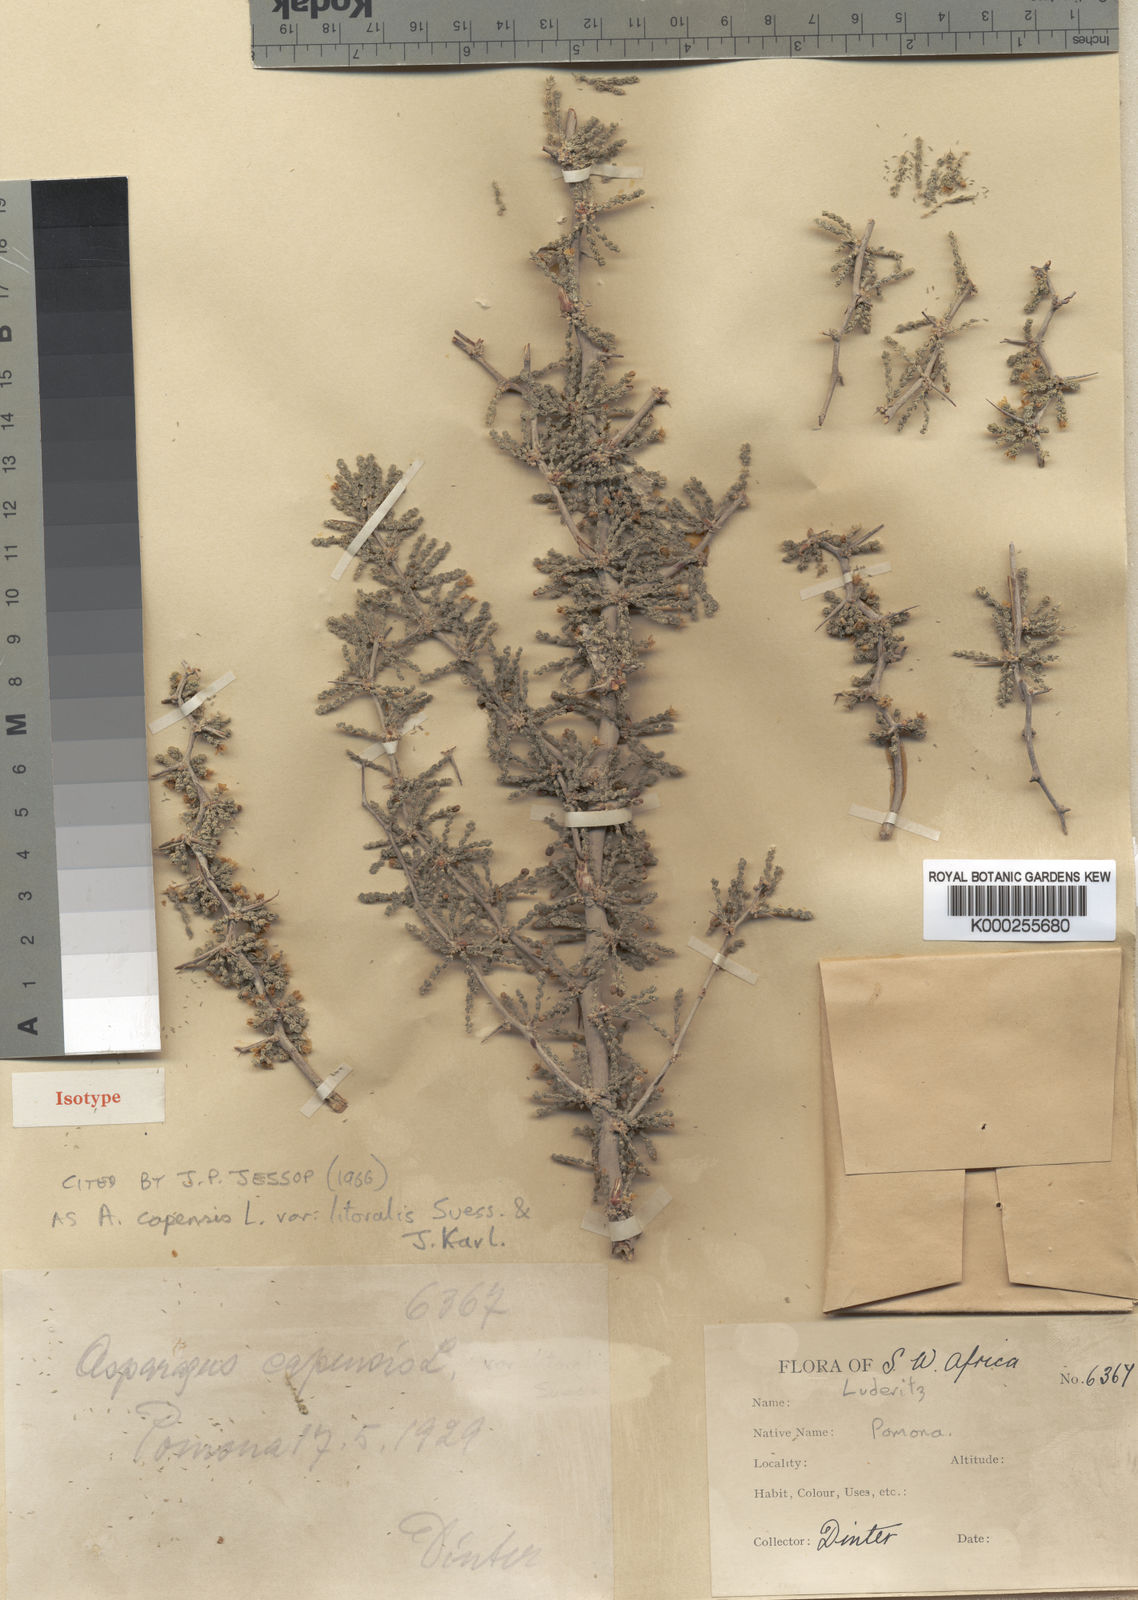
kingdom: Plantae
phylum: Tracheophyta
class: Liliopsida
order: Asparagales
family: Asparagaceae
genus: Asparagus
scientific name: Asparagus capensis
